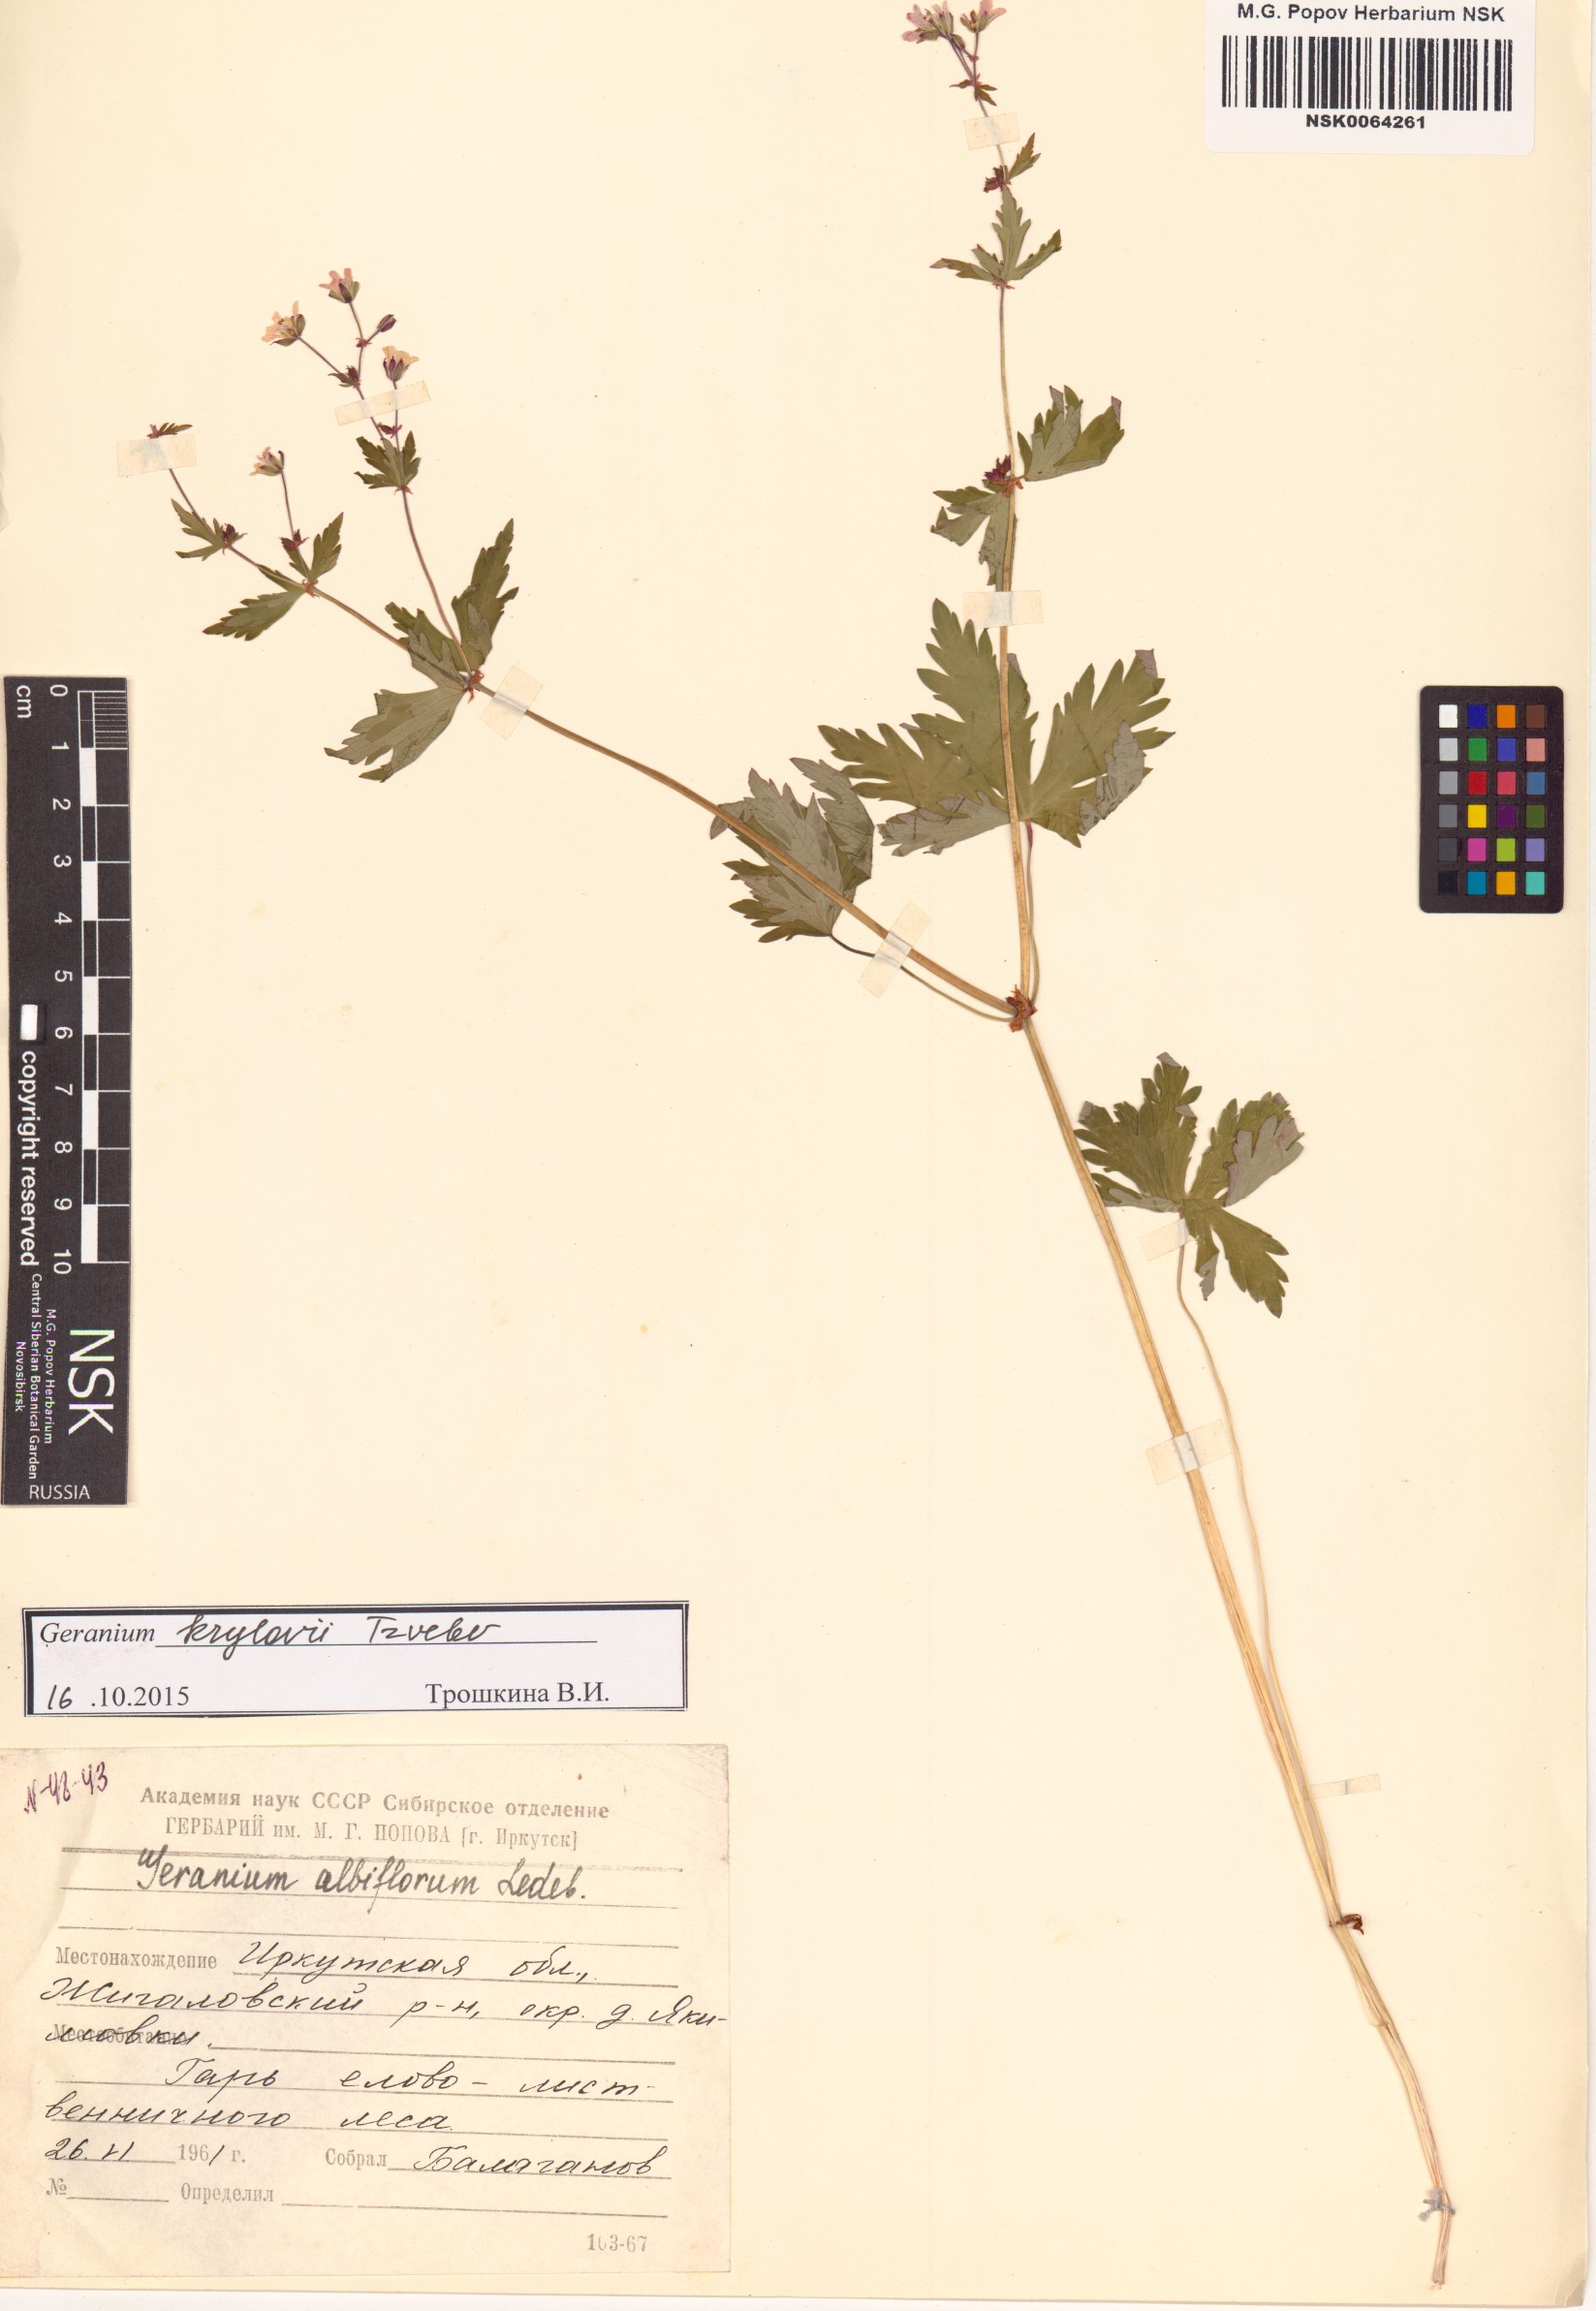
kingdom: Plantae
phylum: Tracheophyta
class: Magnoliopsida
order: Geraniales
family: Geraniaceae
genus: Geranium
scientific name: Geranium sylvaticum
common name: Wood crane's-bill
